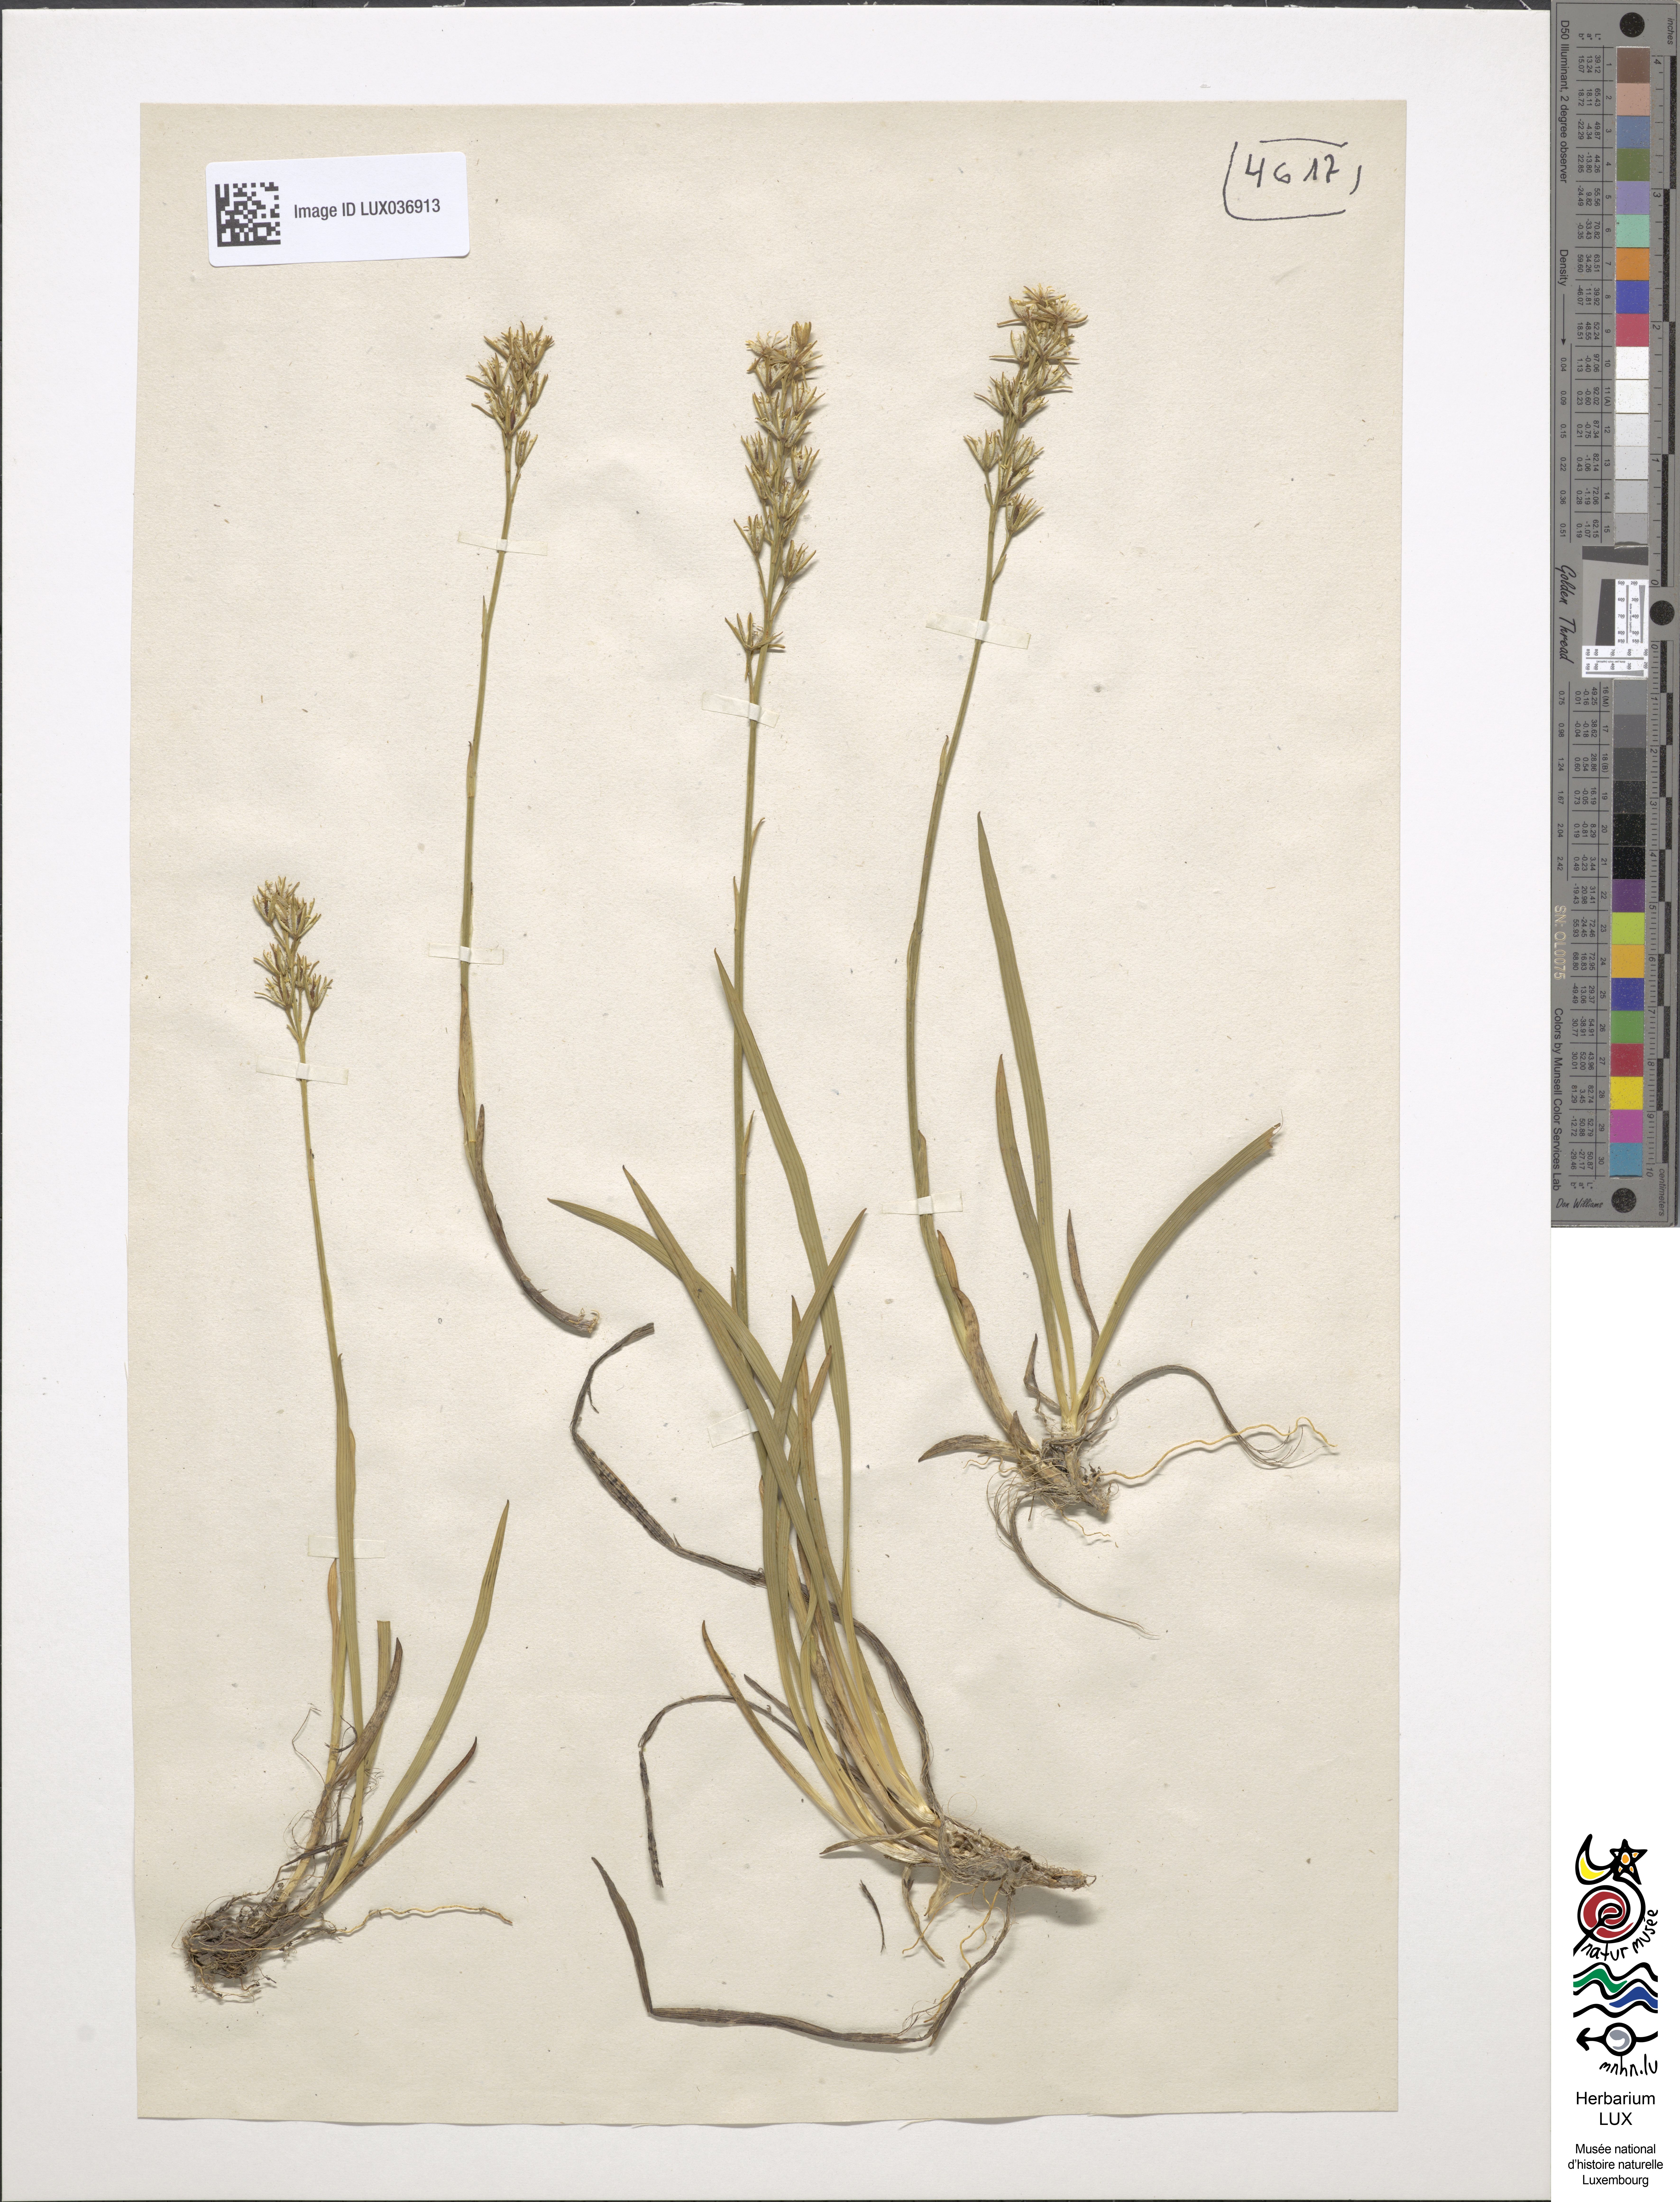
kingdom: Plantae
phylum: Tracheophyta
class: Liliopsida
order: Dioscoreales
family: Nartheciaceae
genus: Narthecium
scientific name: Narthecium ossifragum
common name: Bog asphodel
